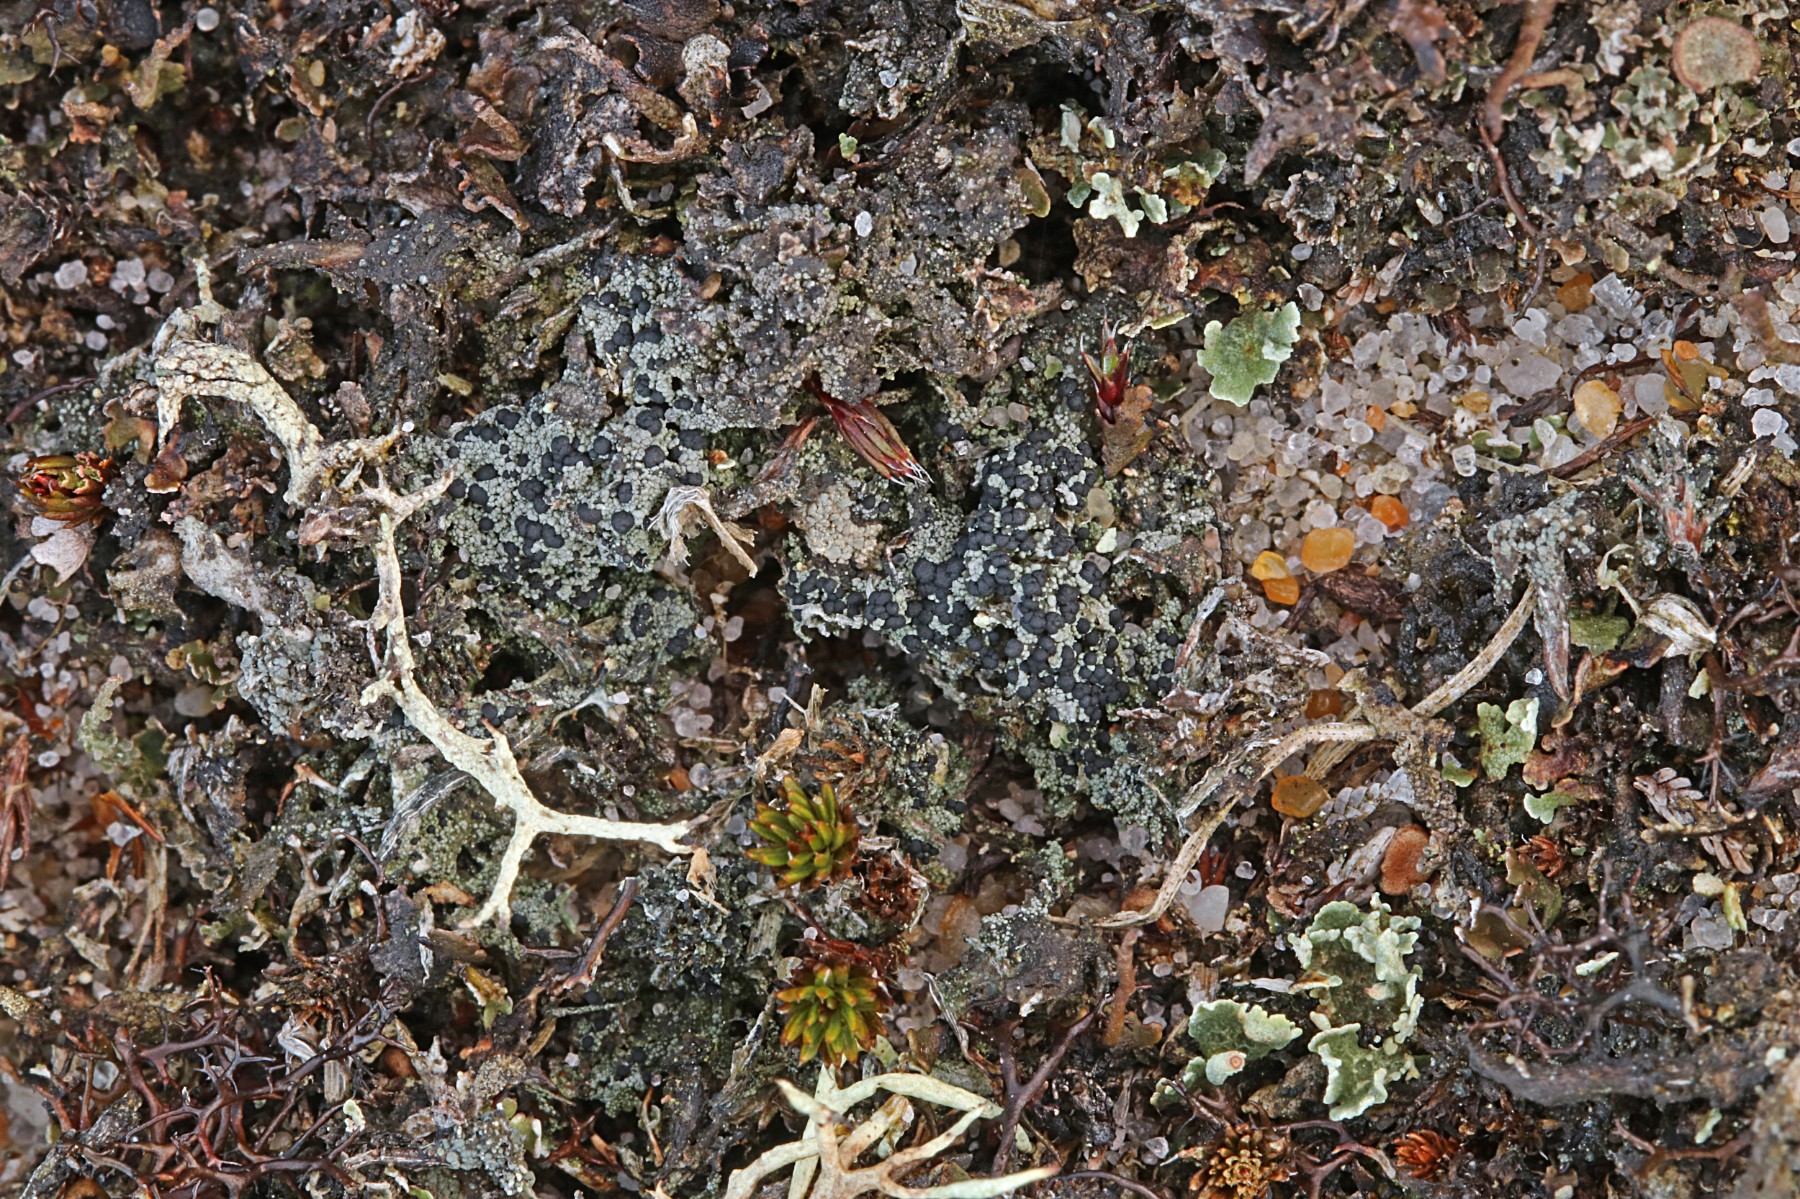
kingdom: Fungi
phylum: Ascomycota
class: Lecanoromycetes
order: Lecanorales
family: Byssolomataceae
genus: Micarea
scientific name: Micarea lignaria
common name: tørve-knaplav
